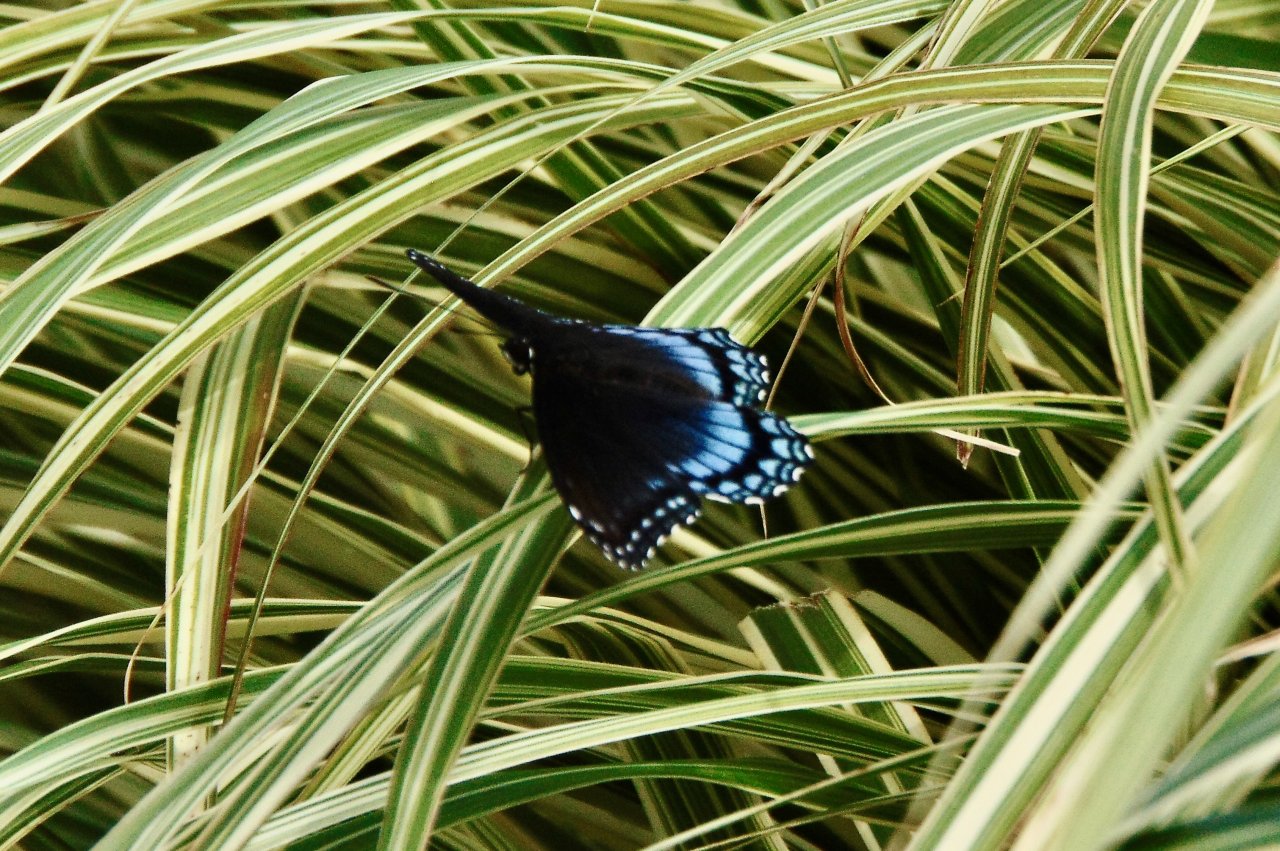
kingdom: Animalia
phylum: Arthropoda
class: Insecta
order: Lepidoptera
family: Nymphalidae
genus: Limenitis
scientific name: Limenitis astyanax
